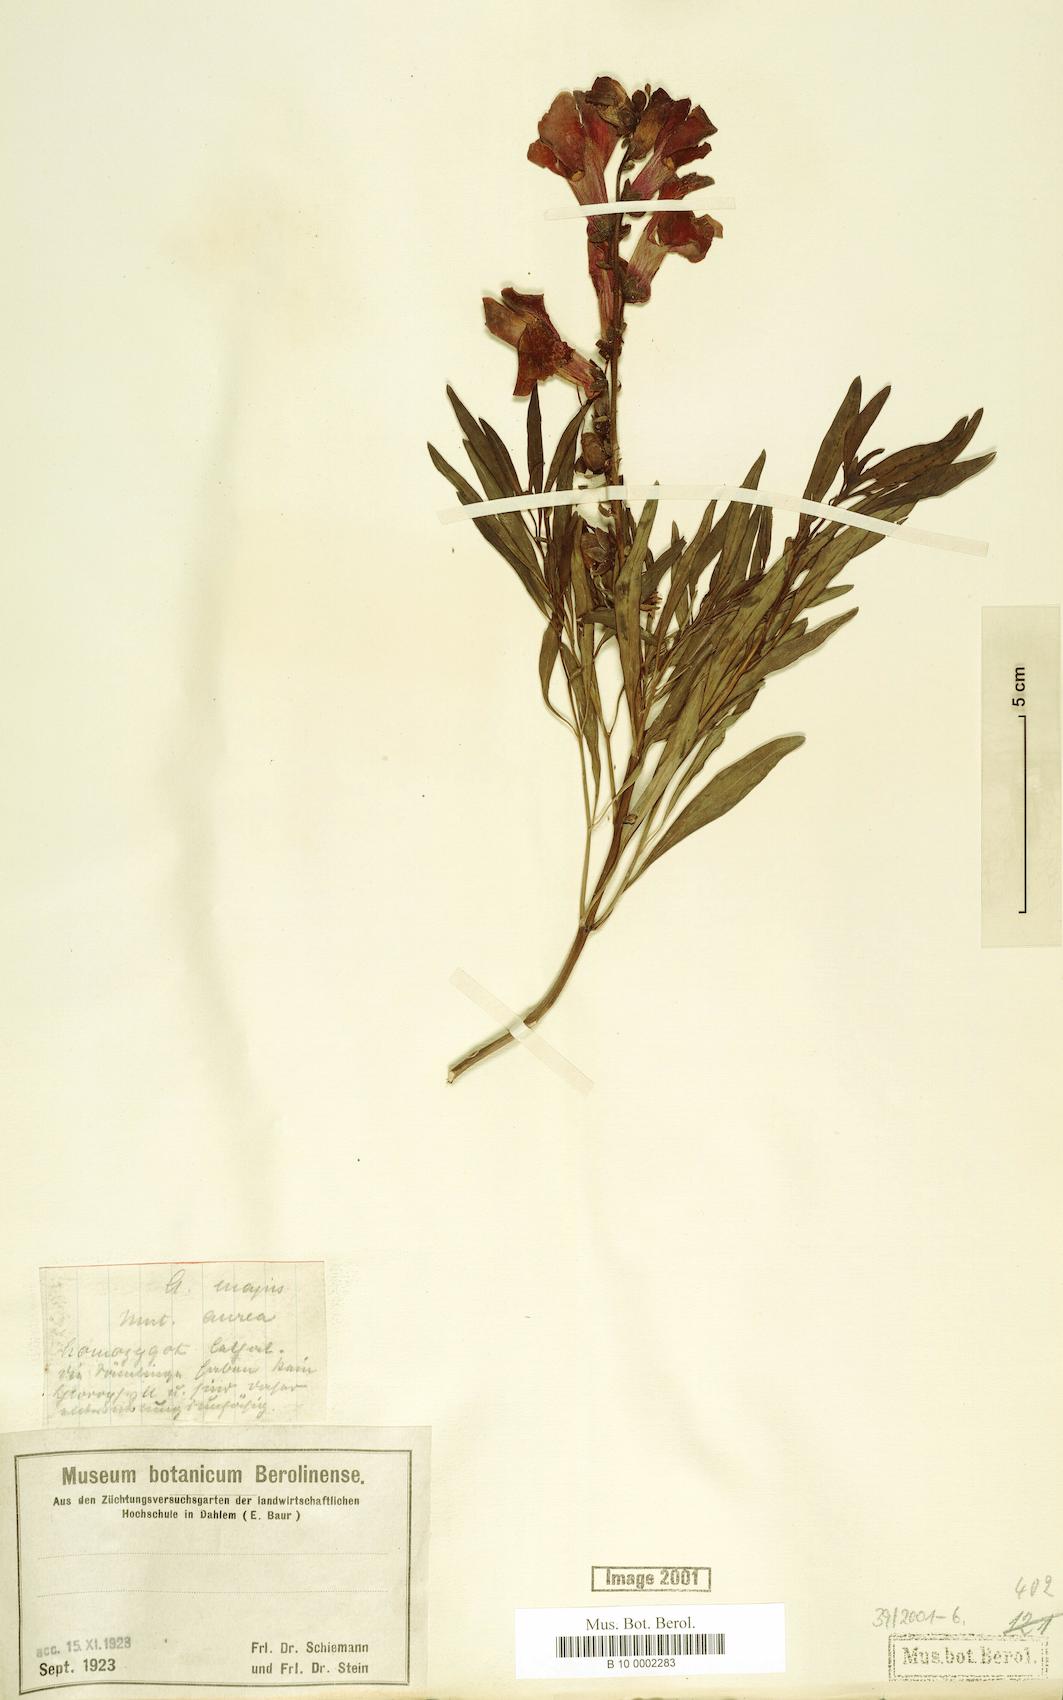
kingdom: Plantae
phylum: Tracheophyta
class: Magnoliopsida
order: Lamiales
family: Plantaginaceae
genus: Antirrhinum
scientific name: Antirrhinum majus
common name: Snapdragon
